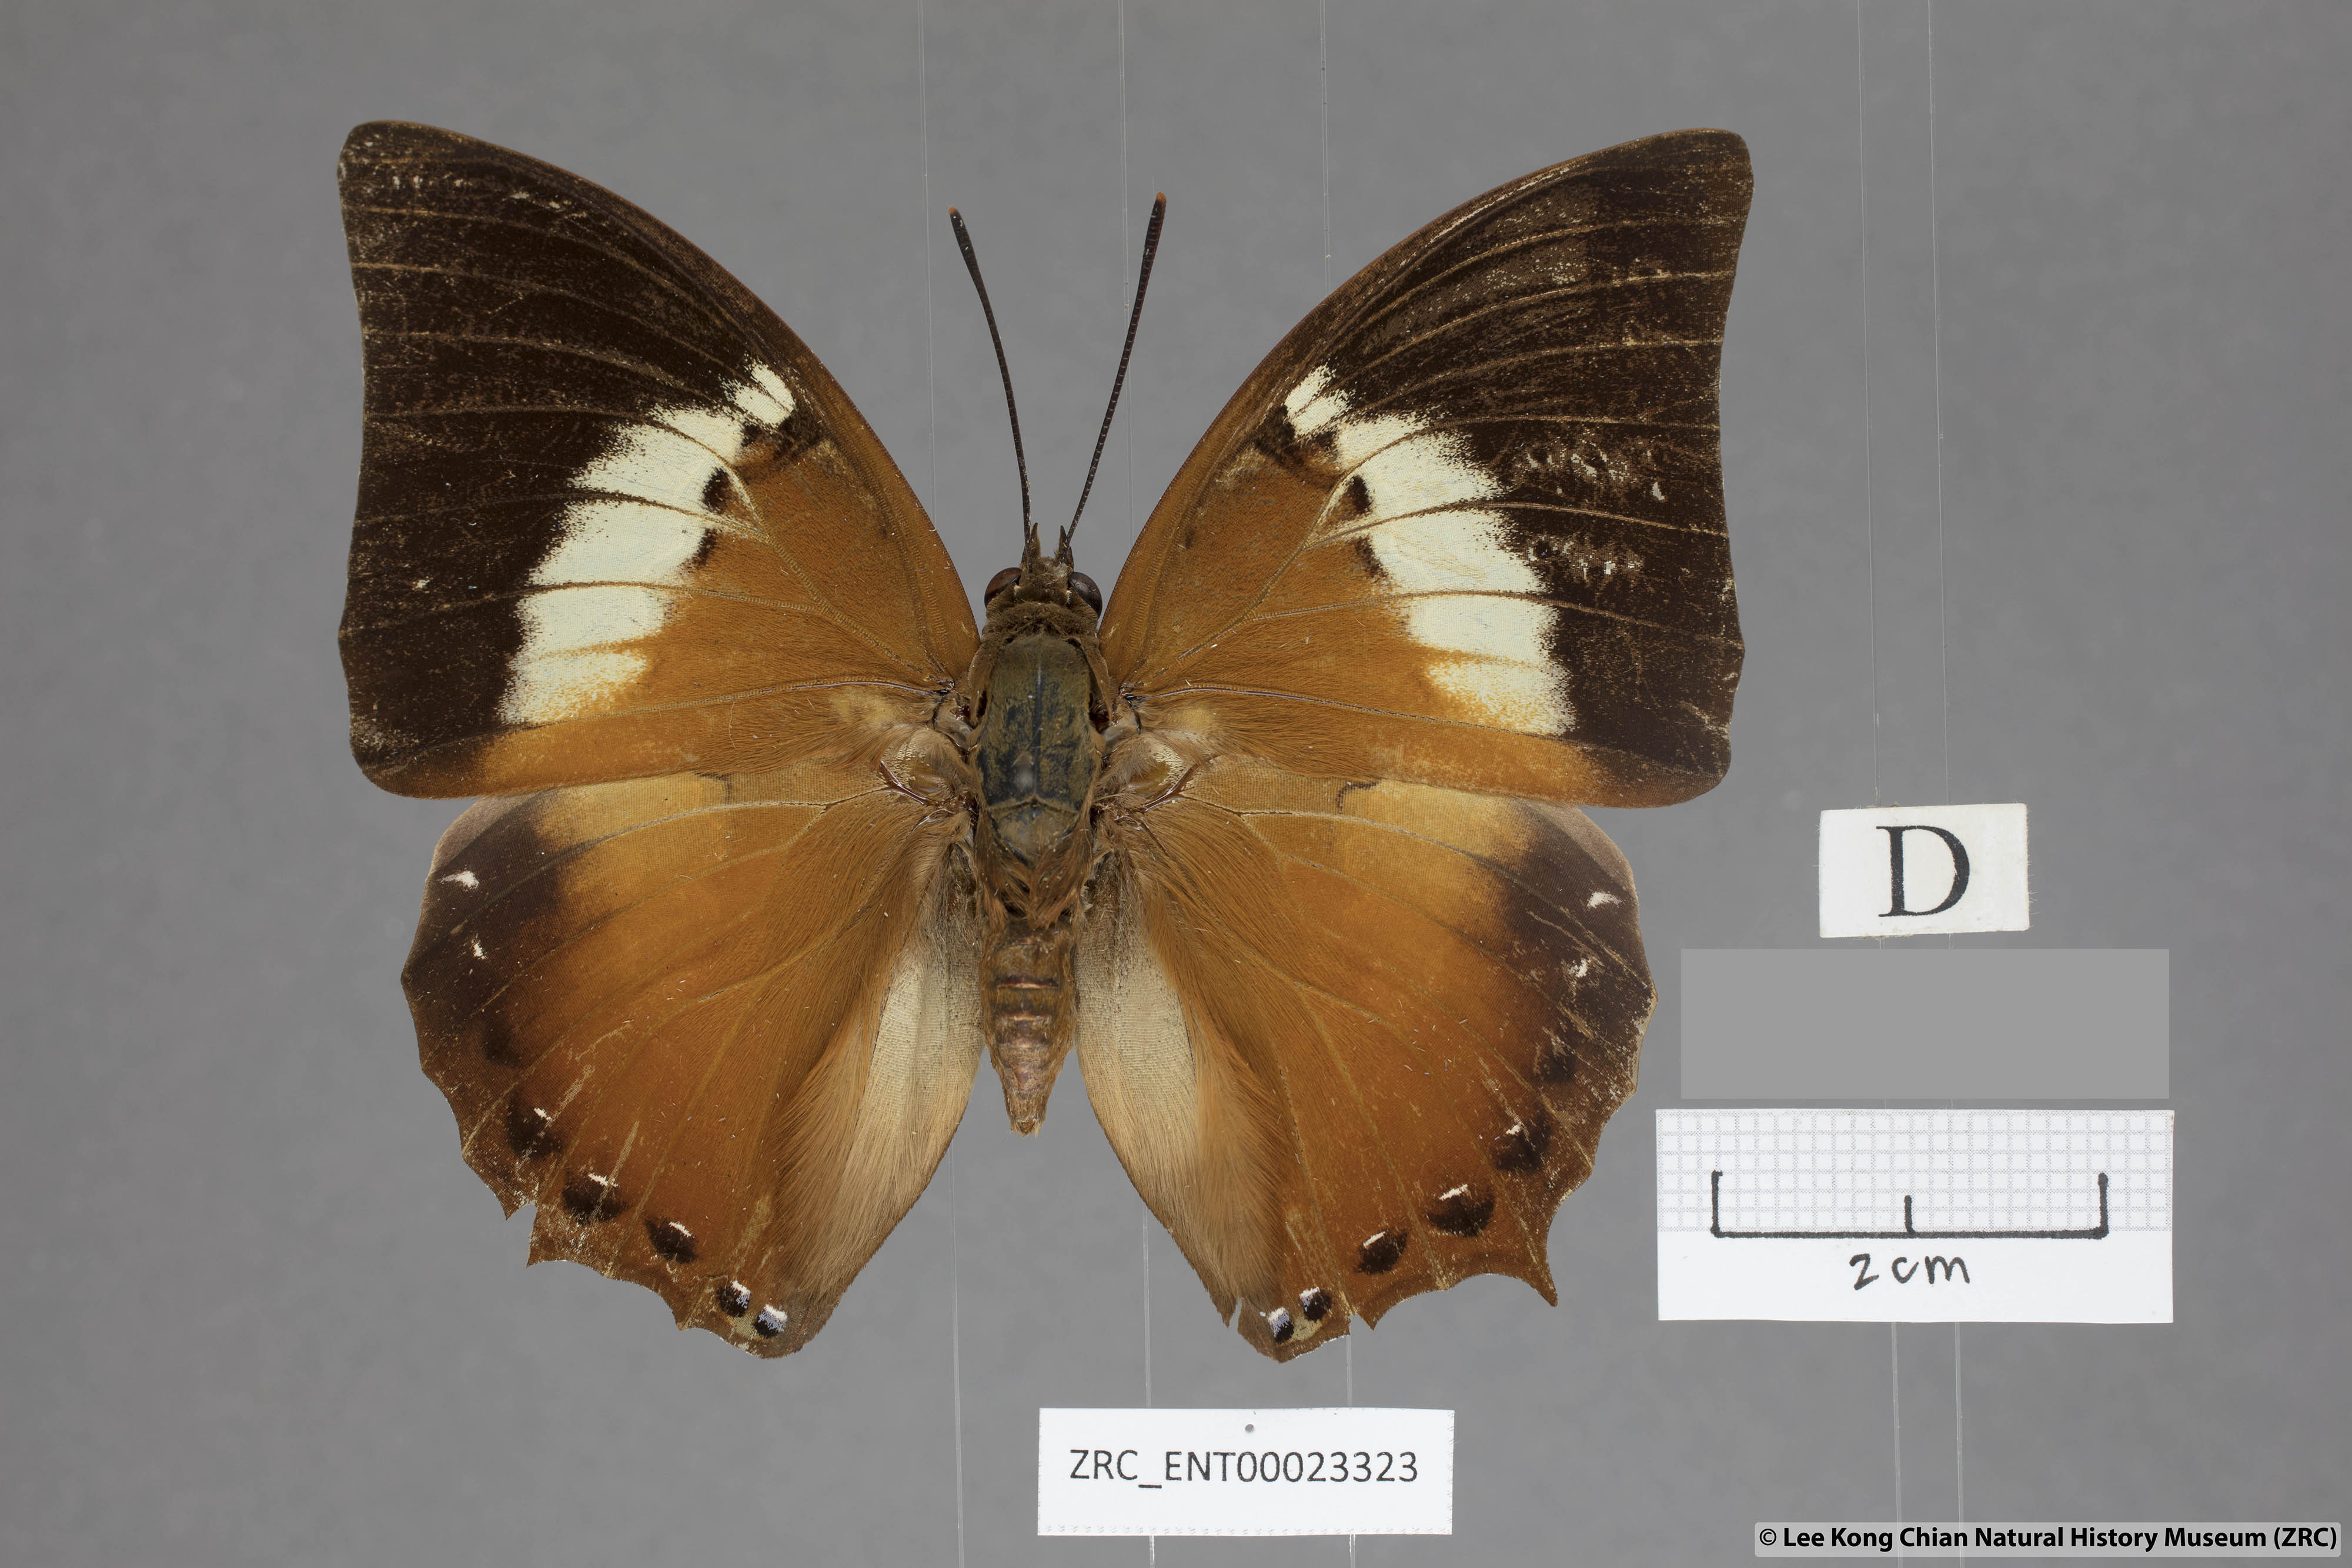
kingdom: Animalia
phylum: Arthropoda
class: Insecta
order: Lepidoptera
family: Nymphalidae
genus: Charaxes
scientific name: Charaxes borneensis
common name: White-banded rajah
